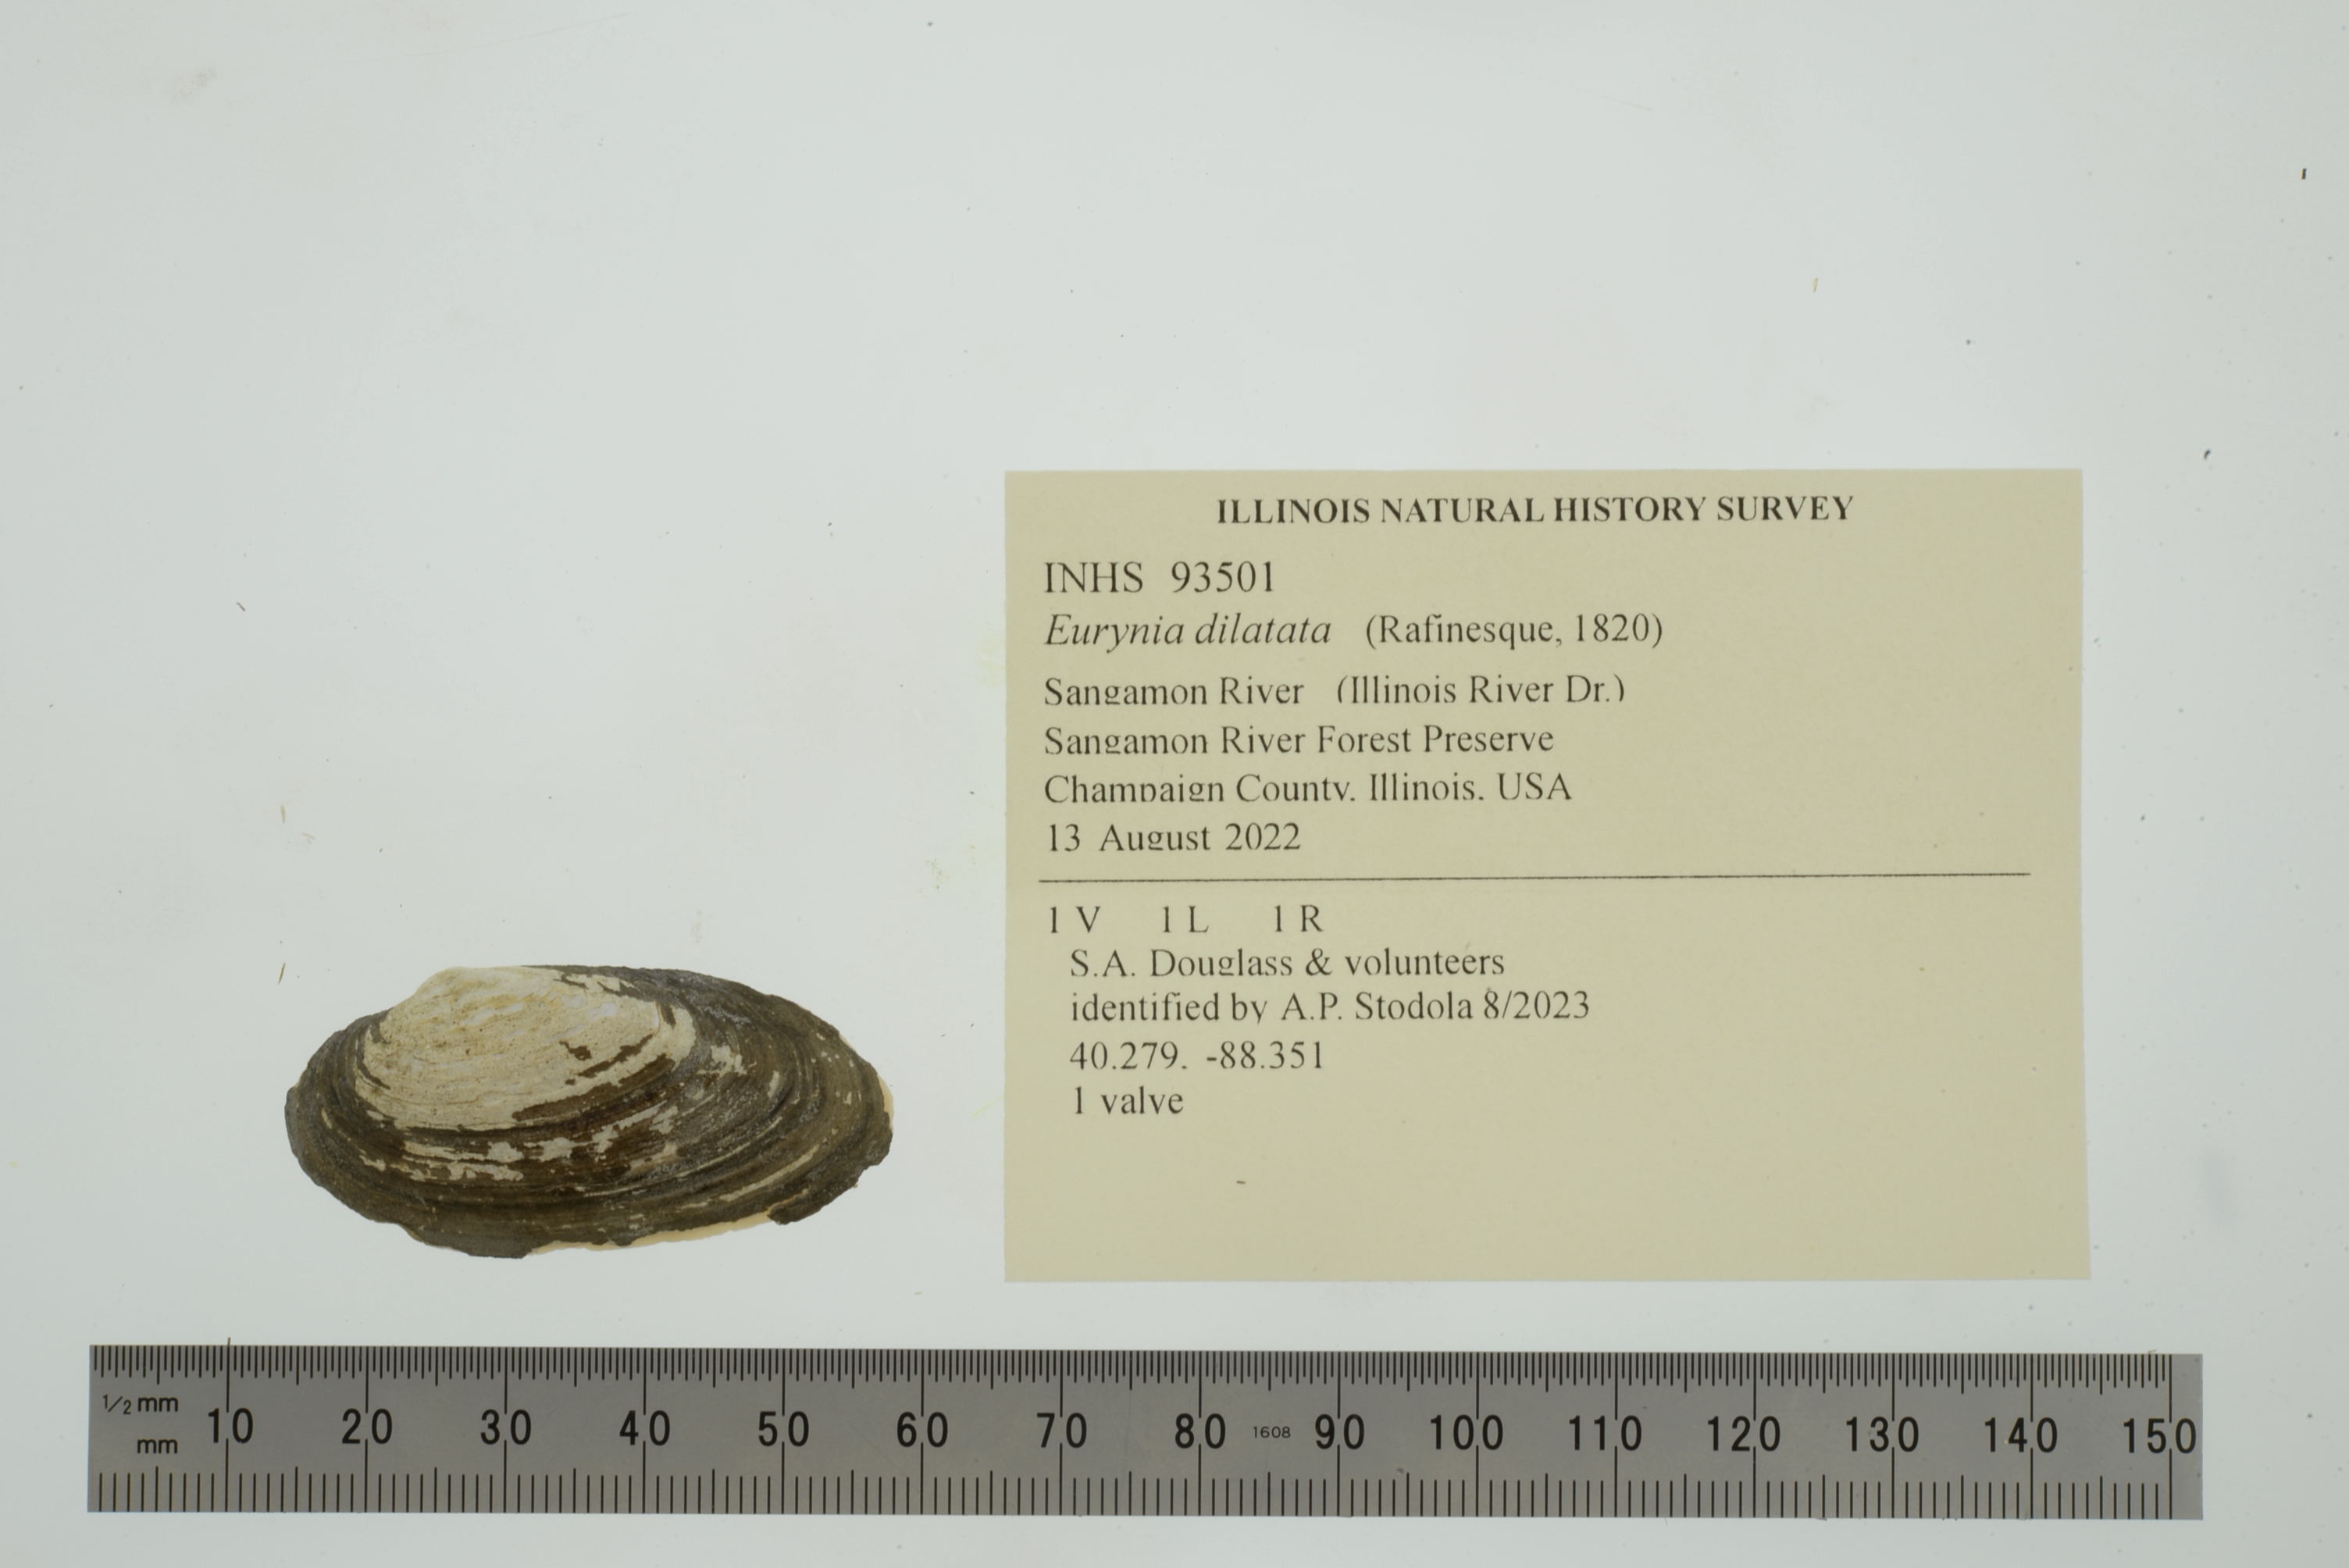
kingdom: Animalia
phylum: Mollusca
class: Bivalvia
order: Unionida
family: Unionidae
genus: Eurynia
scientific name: Eurynia dilatata
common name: Spike
